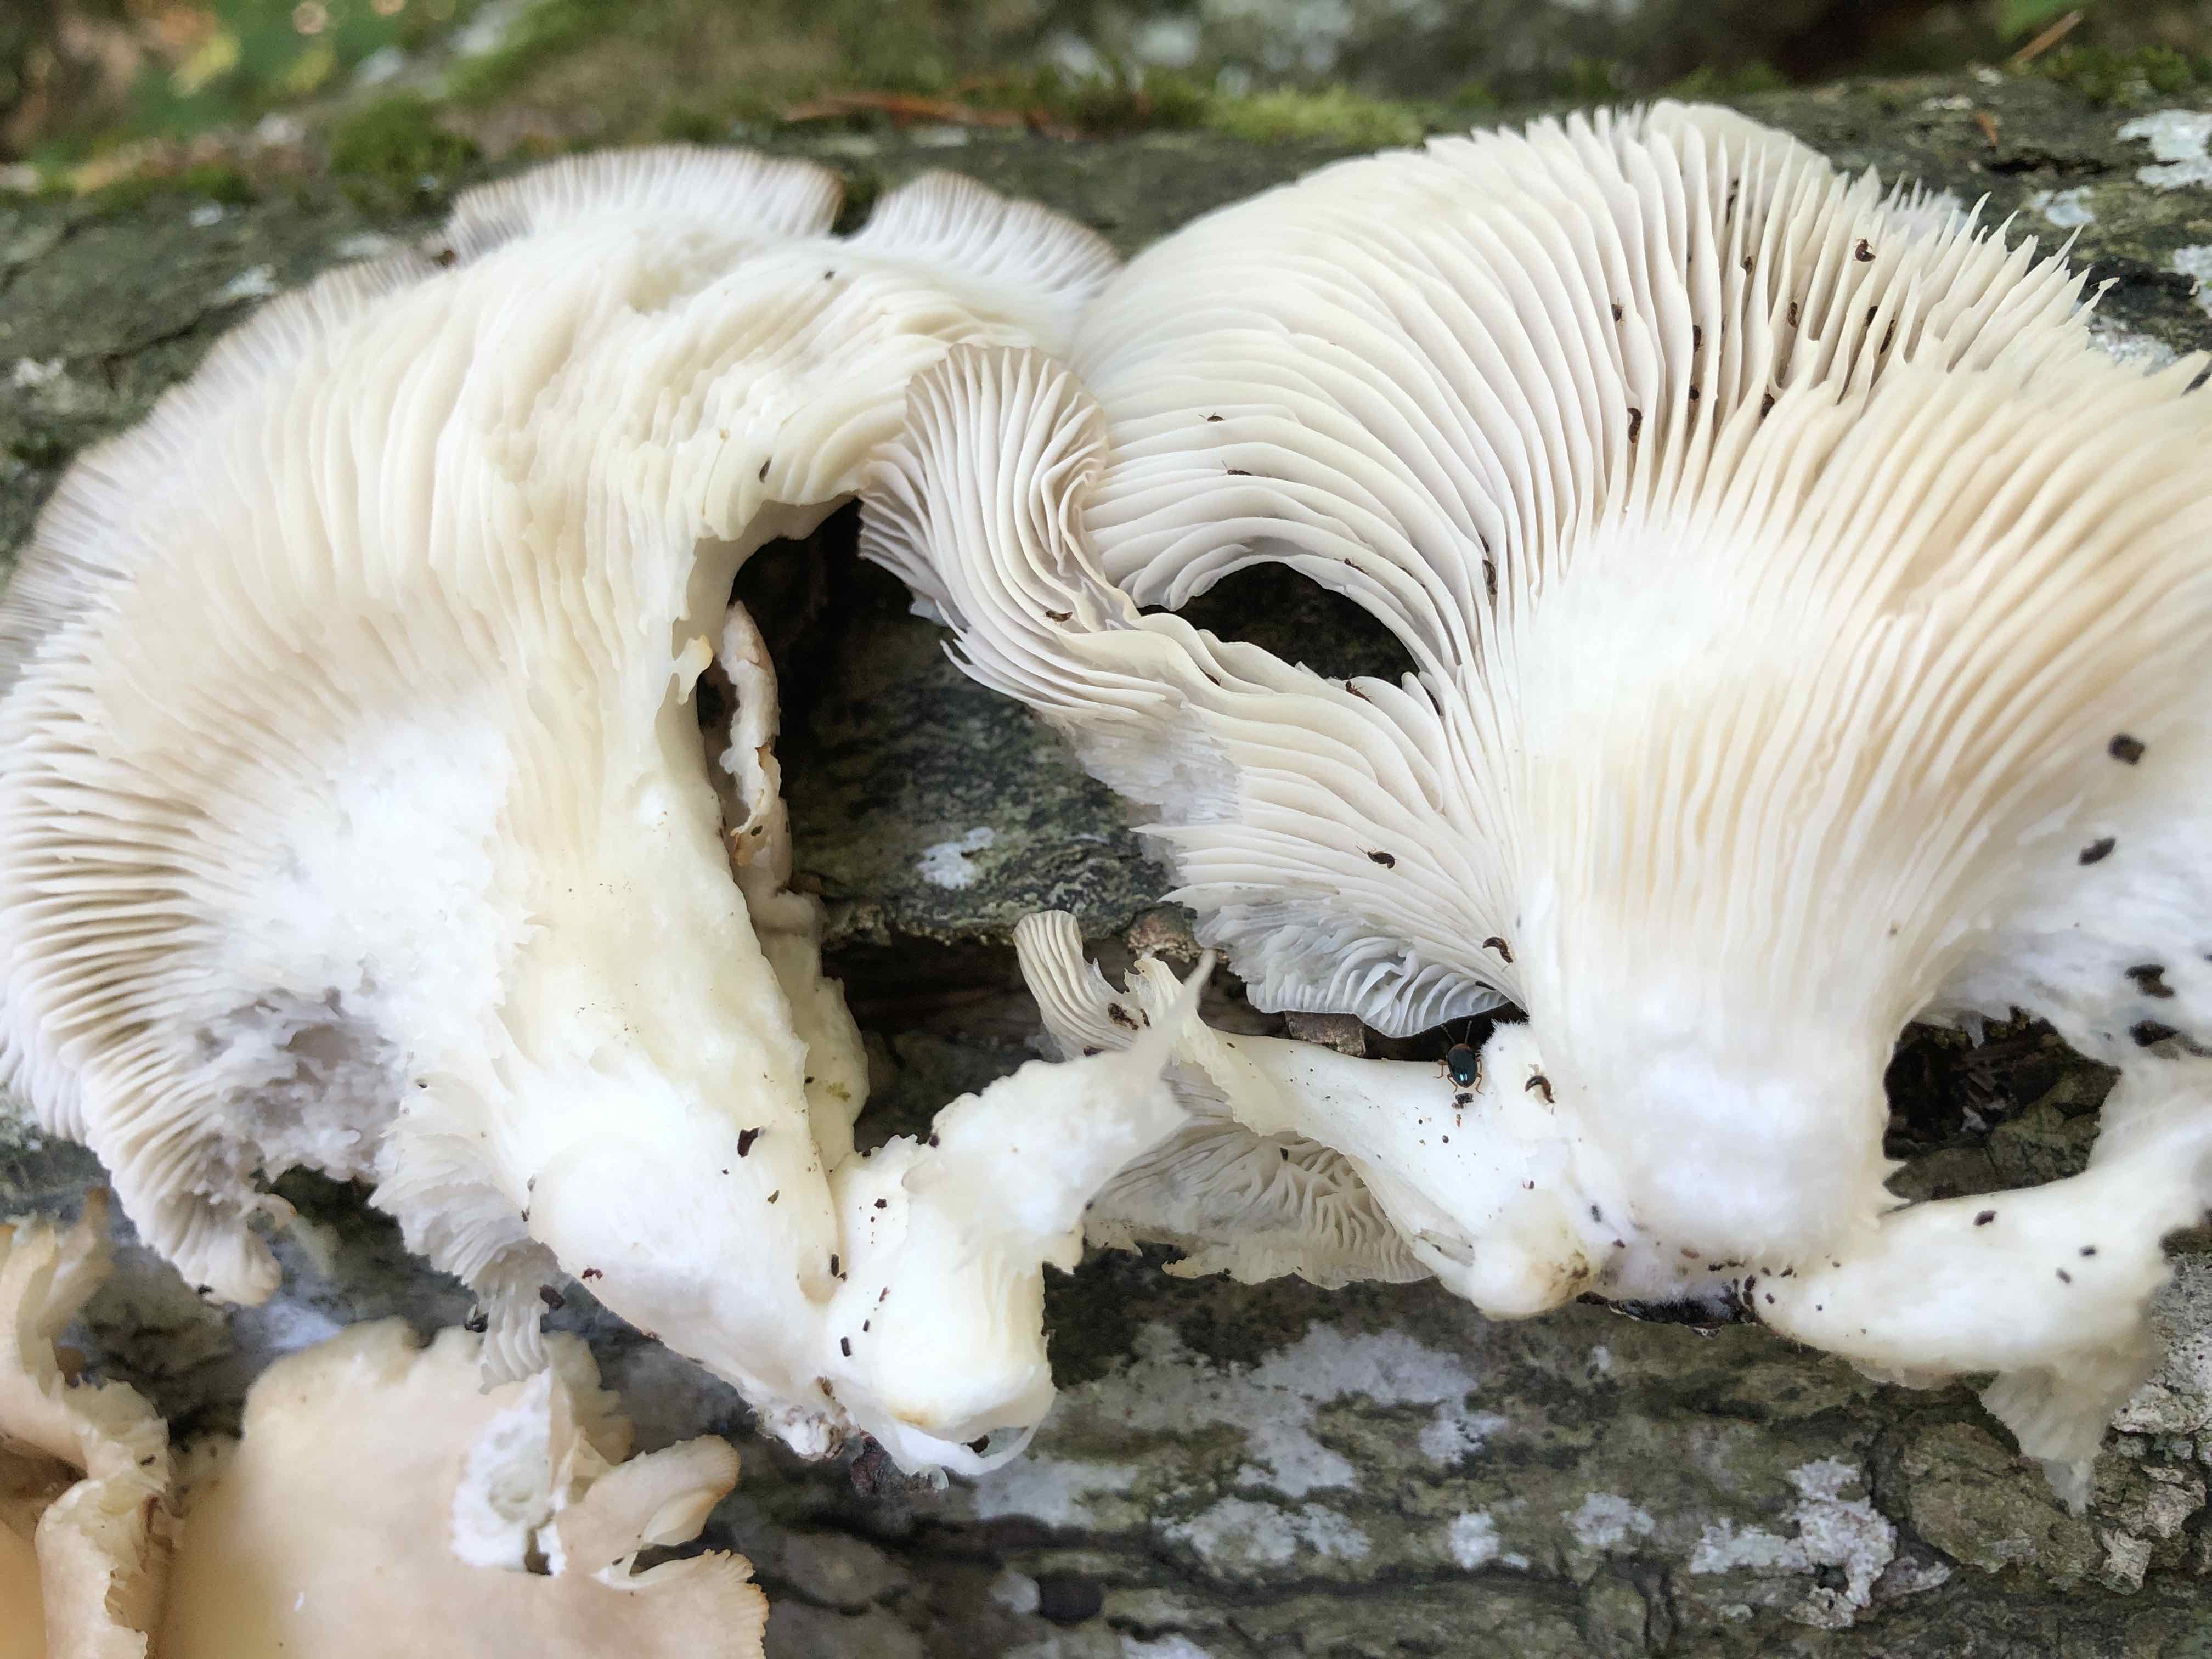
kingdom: Fungi
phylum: Basidiomycota
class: Agaricomycetes
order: Agaricales
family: Pleurotaceae
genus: Pleurotus
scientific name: Pleurotus pulmonarius
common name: sommer-østershat
